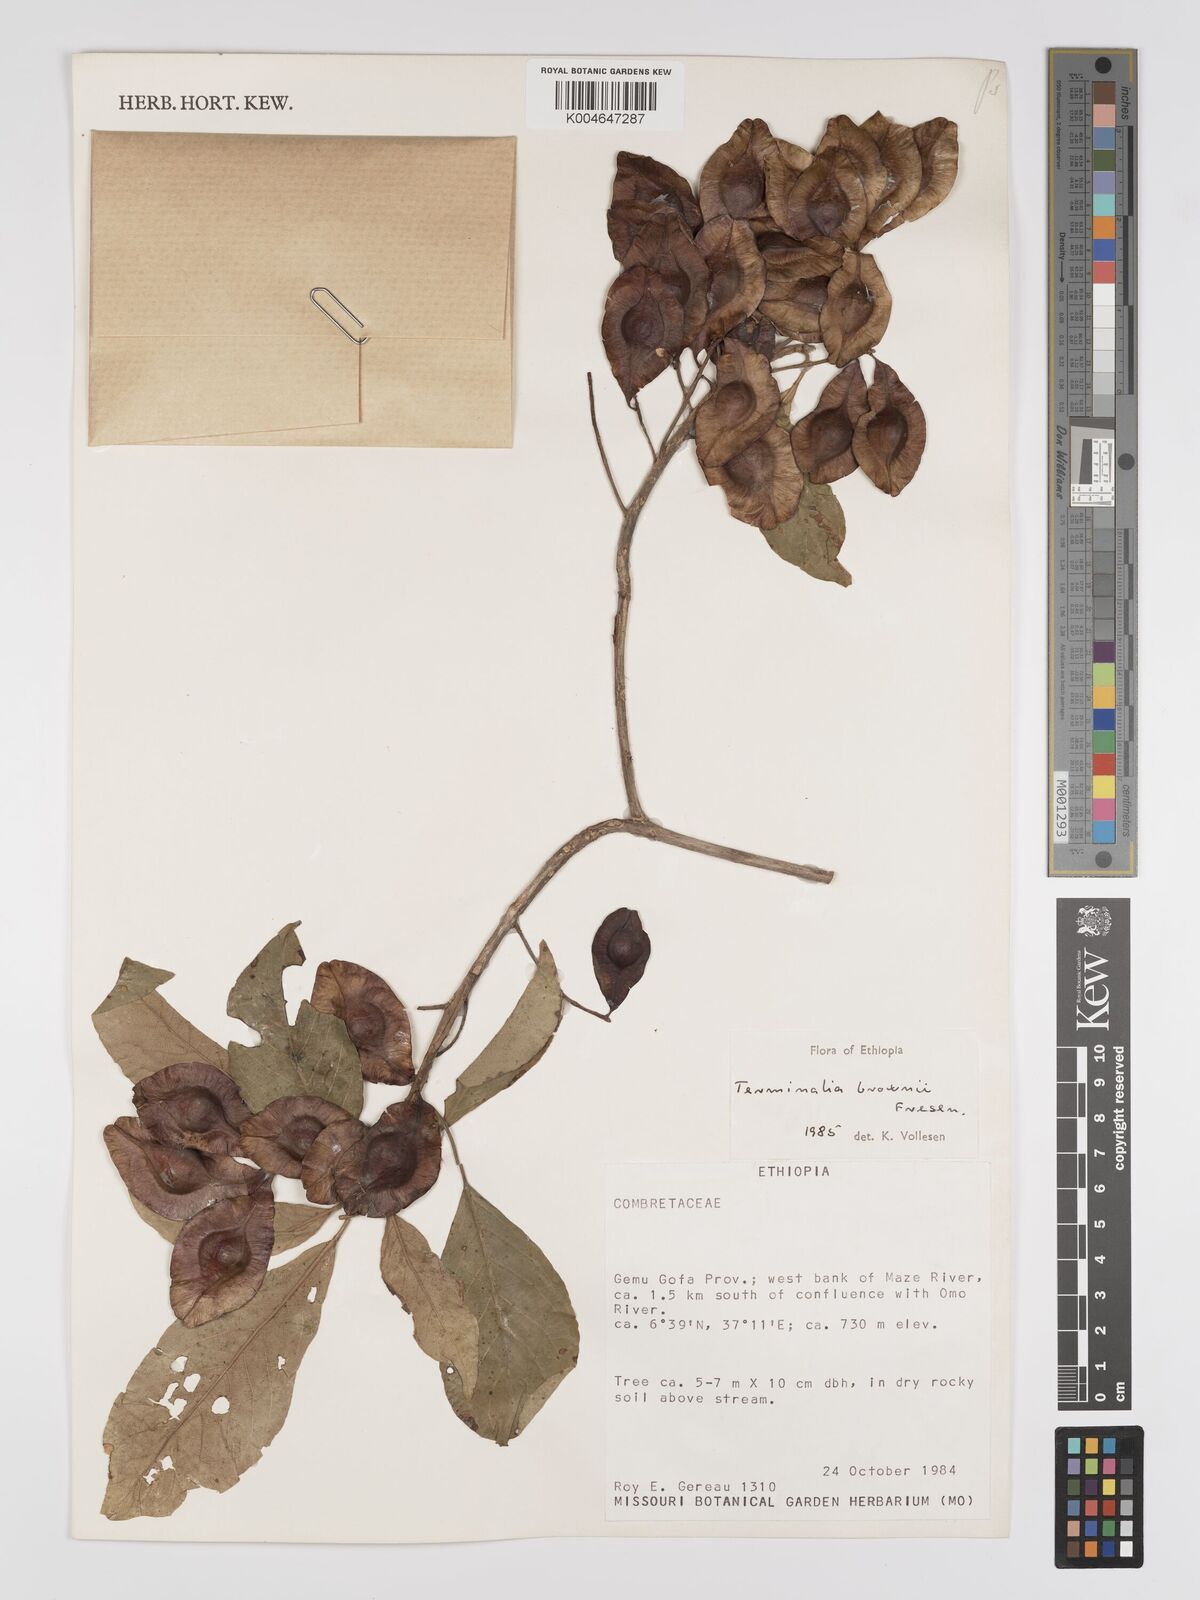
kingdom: Plantae
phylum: Tracheophyta
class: Magnoliopsida
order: Myrtales
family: Combretaceae
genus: Terminalia
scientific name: Terminalia brownii
